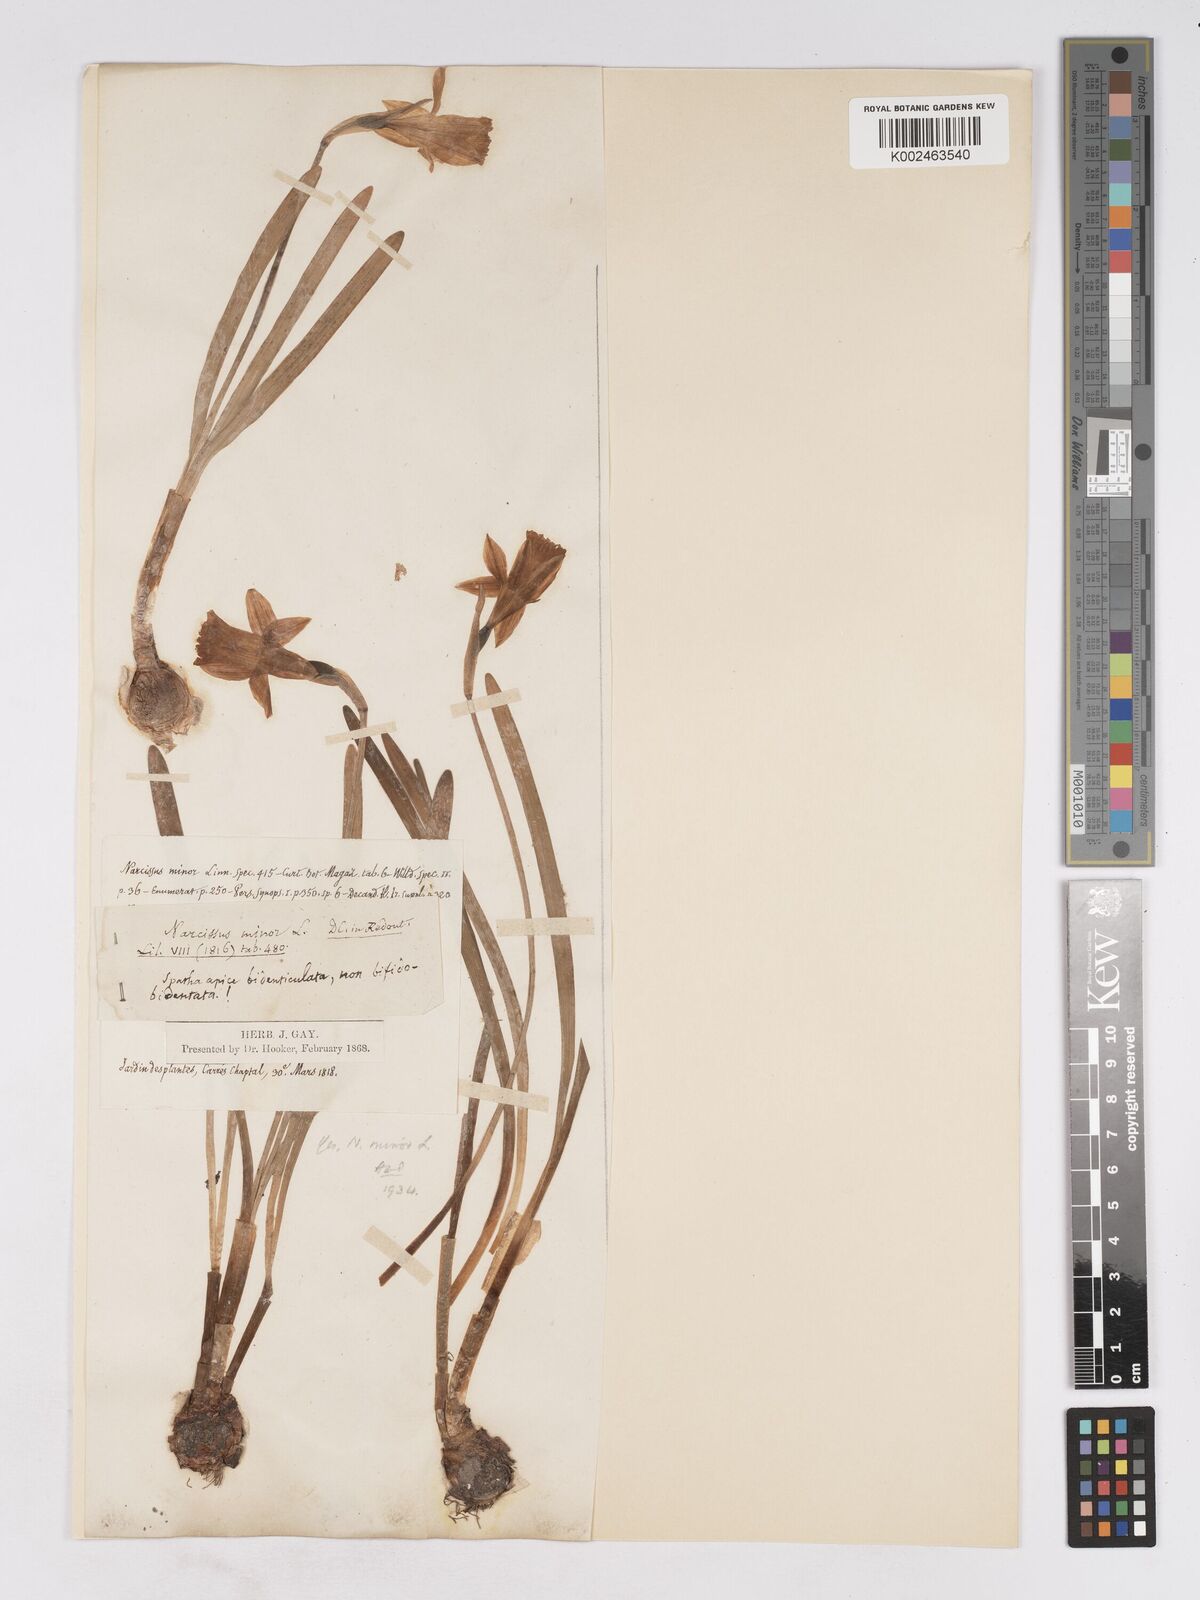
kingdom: Plantae
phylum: Tracheophyta
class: Liliopsida
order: Asparagales
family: Amaryllidaceae
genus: Narcissus
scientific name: Narcissus minor
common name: Lesser daffodil
